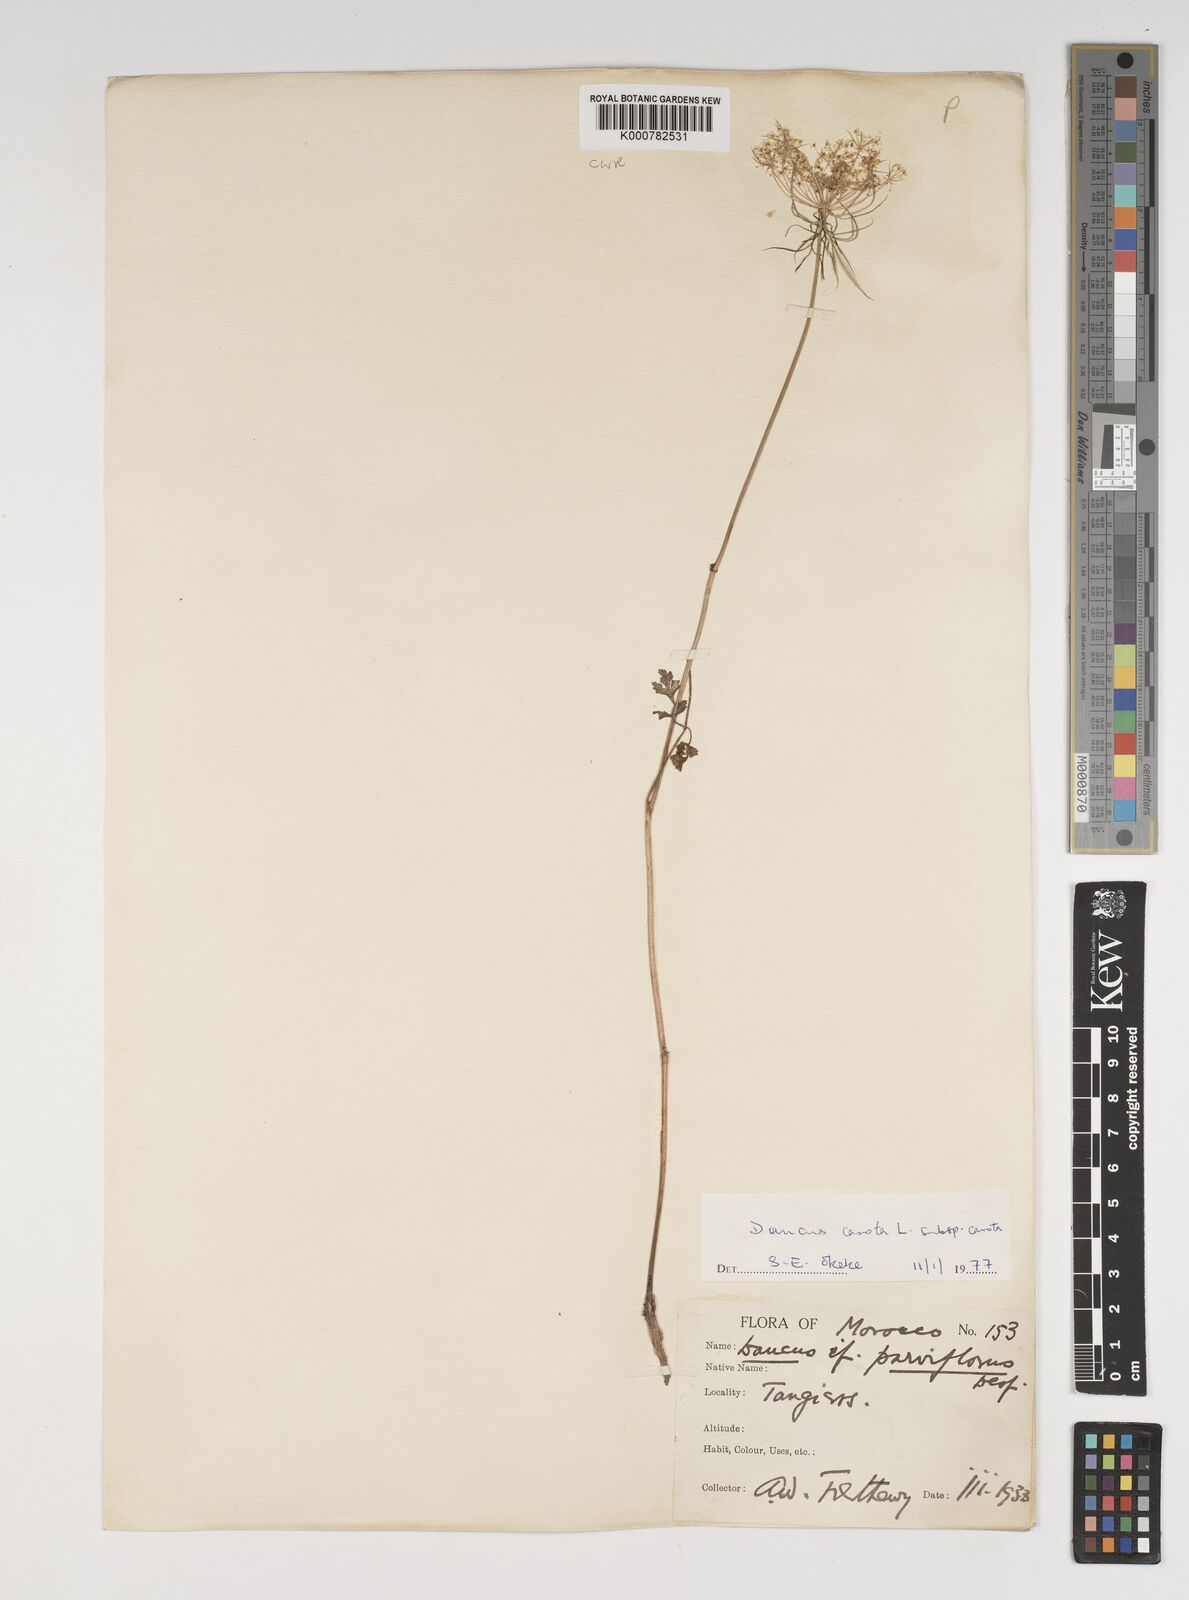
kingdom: Plantae
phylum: Tracheophyta
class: Magnoliopsida
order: Apiales
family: Apiaceae
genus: Daucus
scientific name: Daucus carota
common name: Wild carrot
